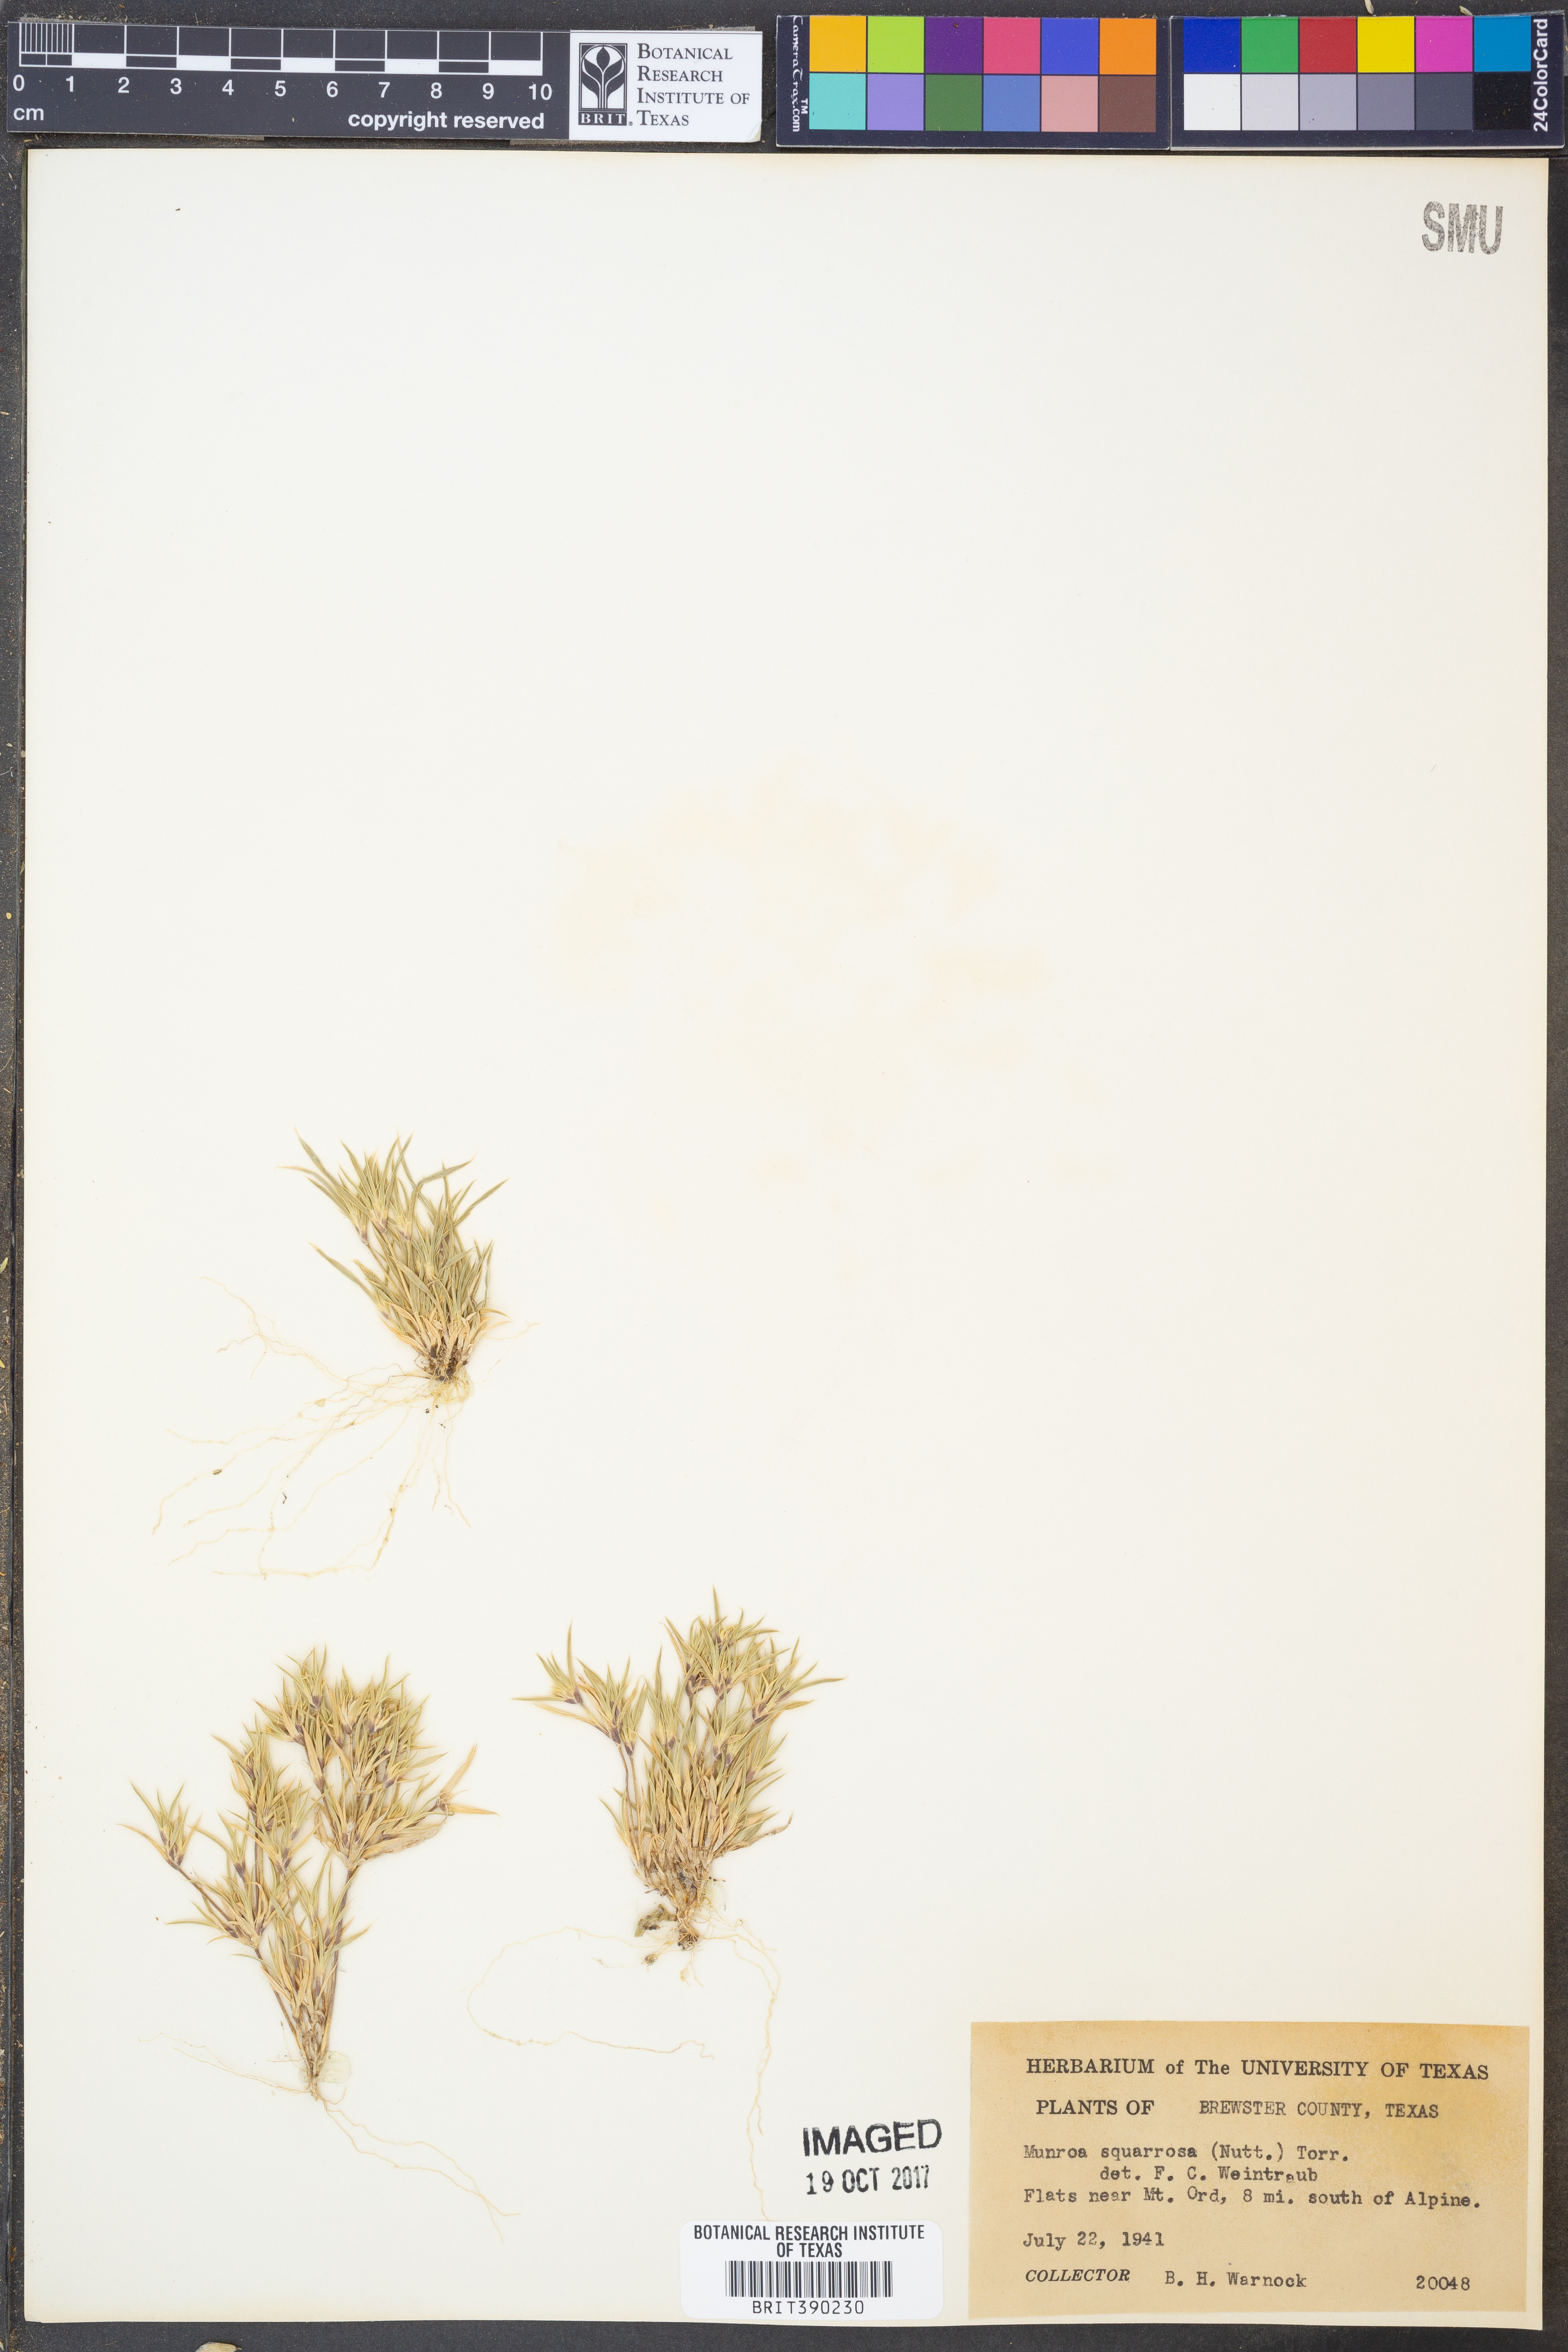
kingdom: Plantae
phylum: Tracheophyta
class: Liliopsida
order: Poales
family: Poaceae
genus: Munroa
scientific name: Munroa squarrosa
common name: False buffalo grass
